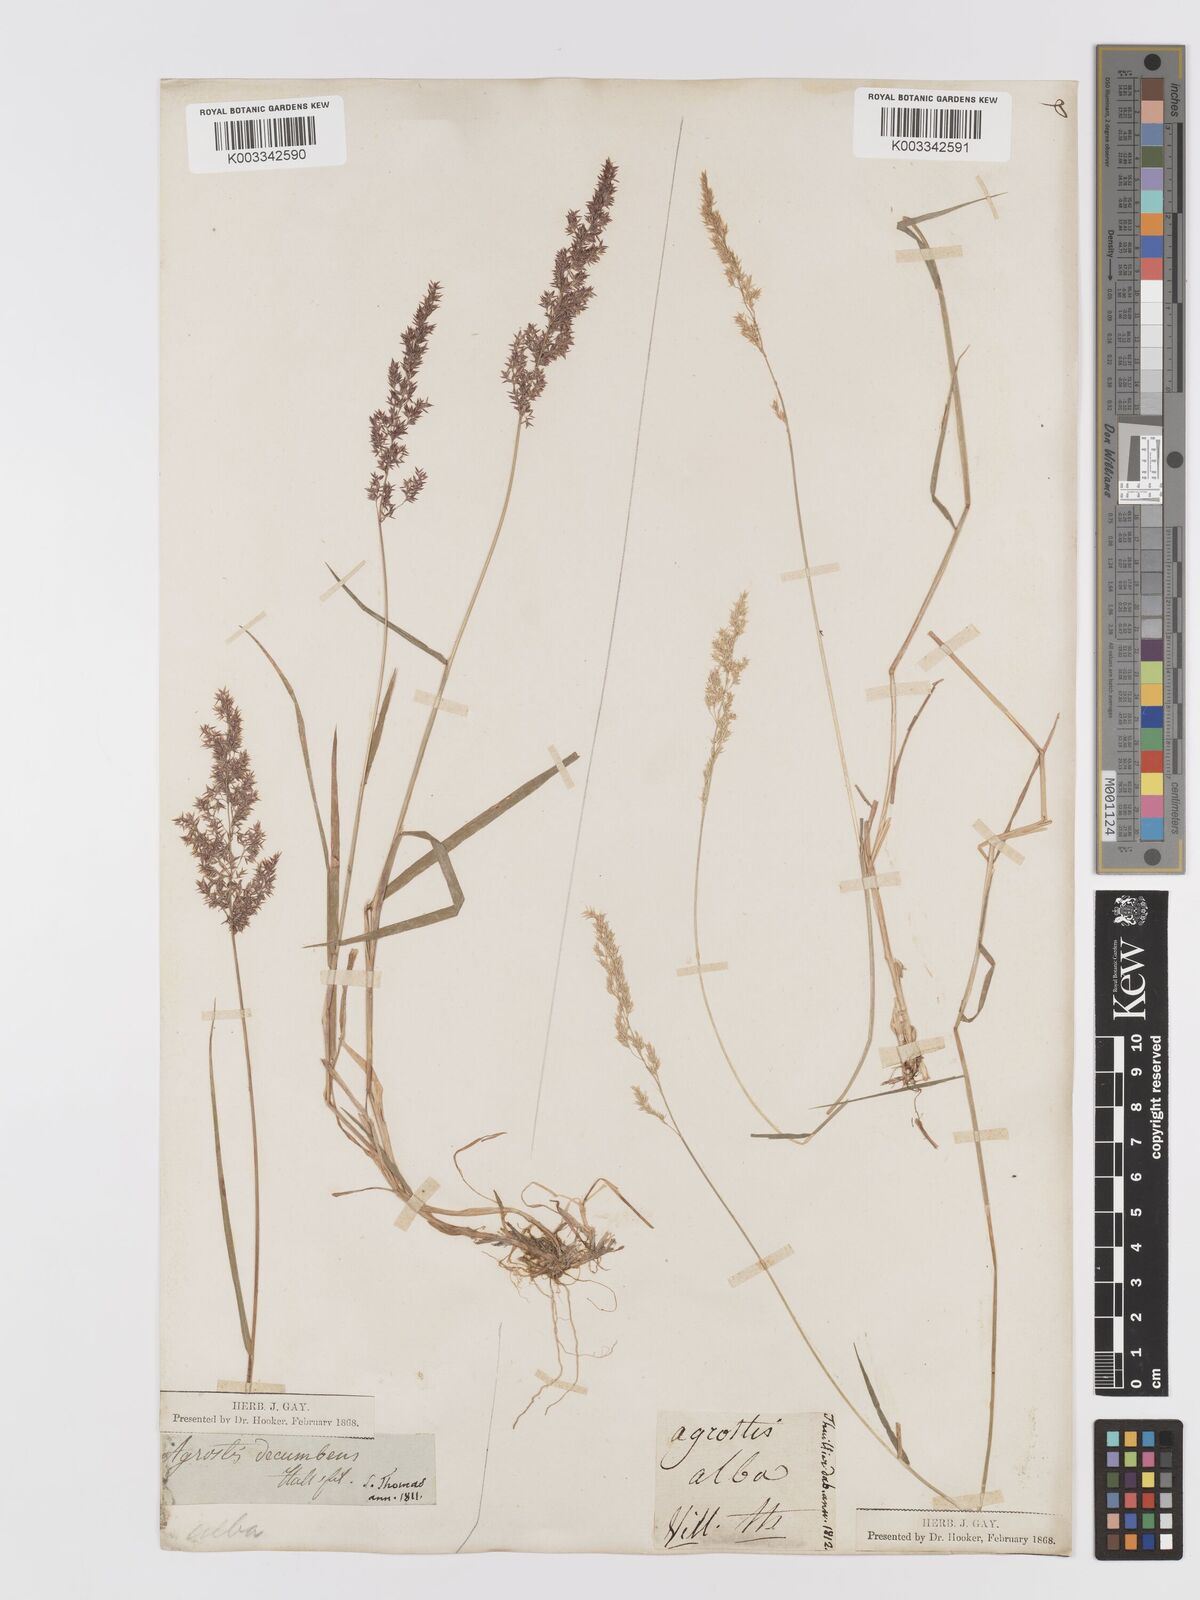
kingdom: Plantae
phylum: Tracheophyta
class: Liliopsida
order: Poales
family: Poaceae
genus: Agrostis
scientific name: Agrostis
